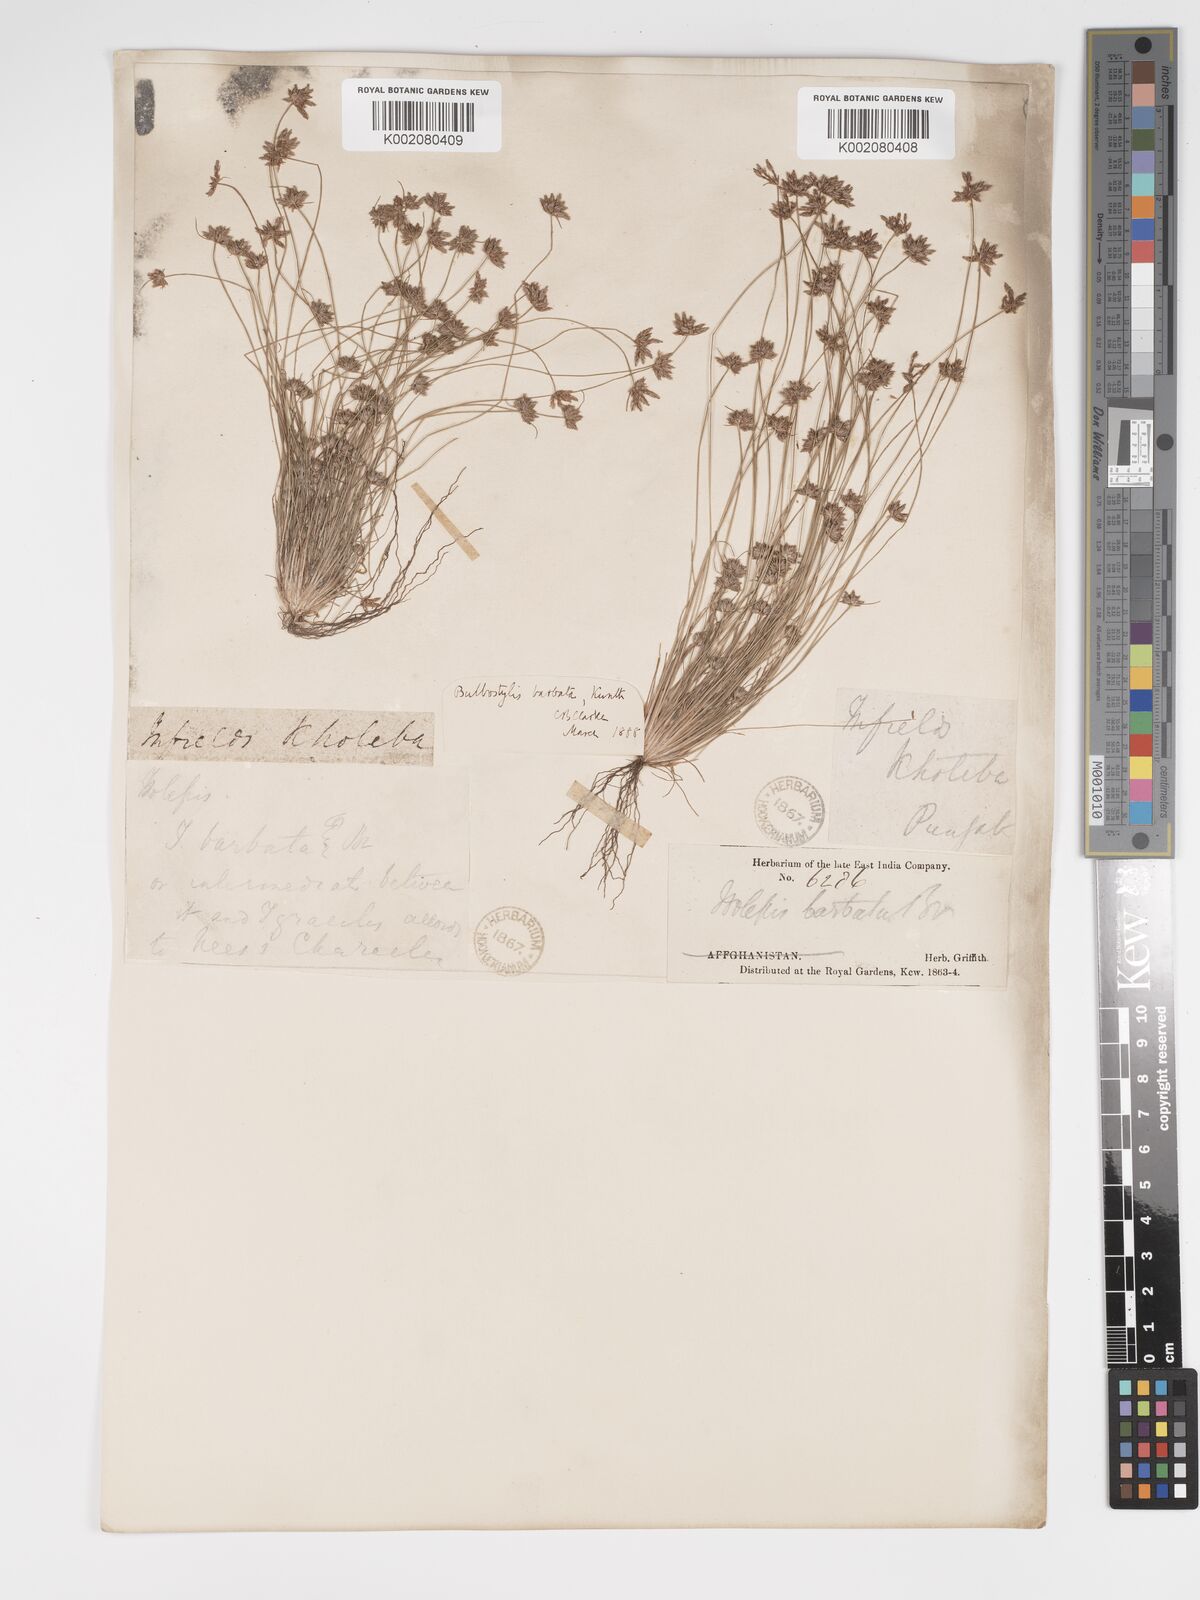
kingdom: Plantae
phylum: Tracheophyta
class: Liliopsida
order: Poales
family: Cyperaceae
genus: Bulbostylis
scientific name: Bulbostylis barbata
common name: Watergrass
